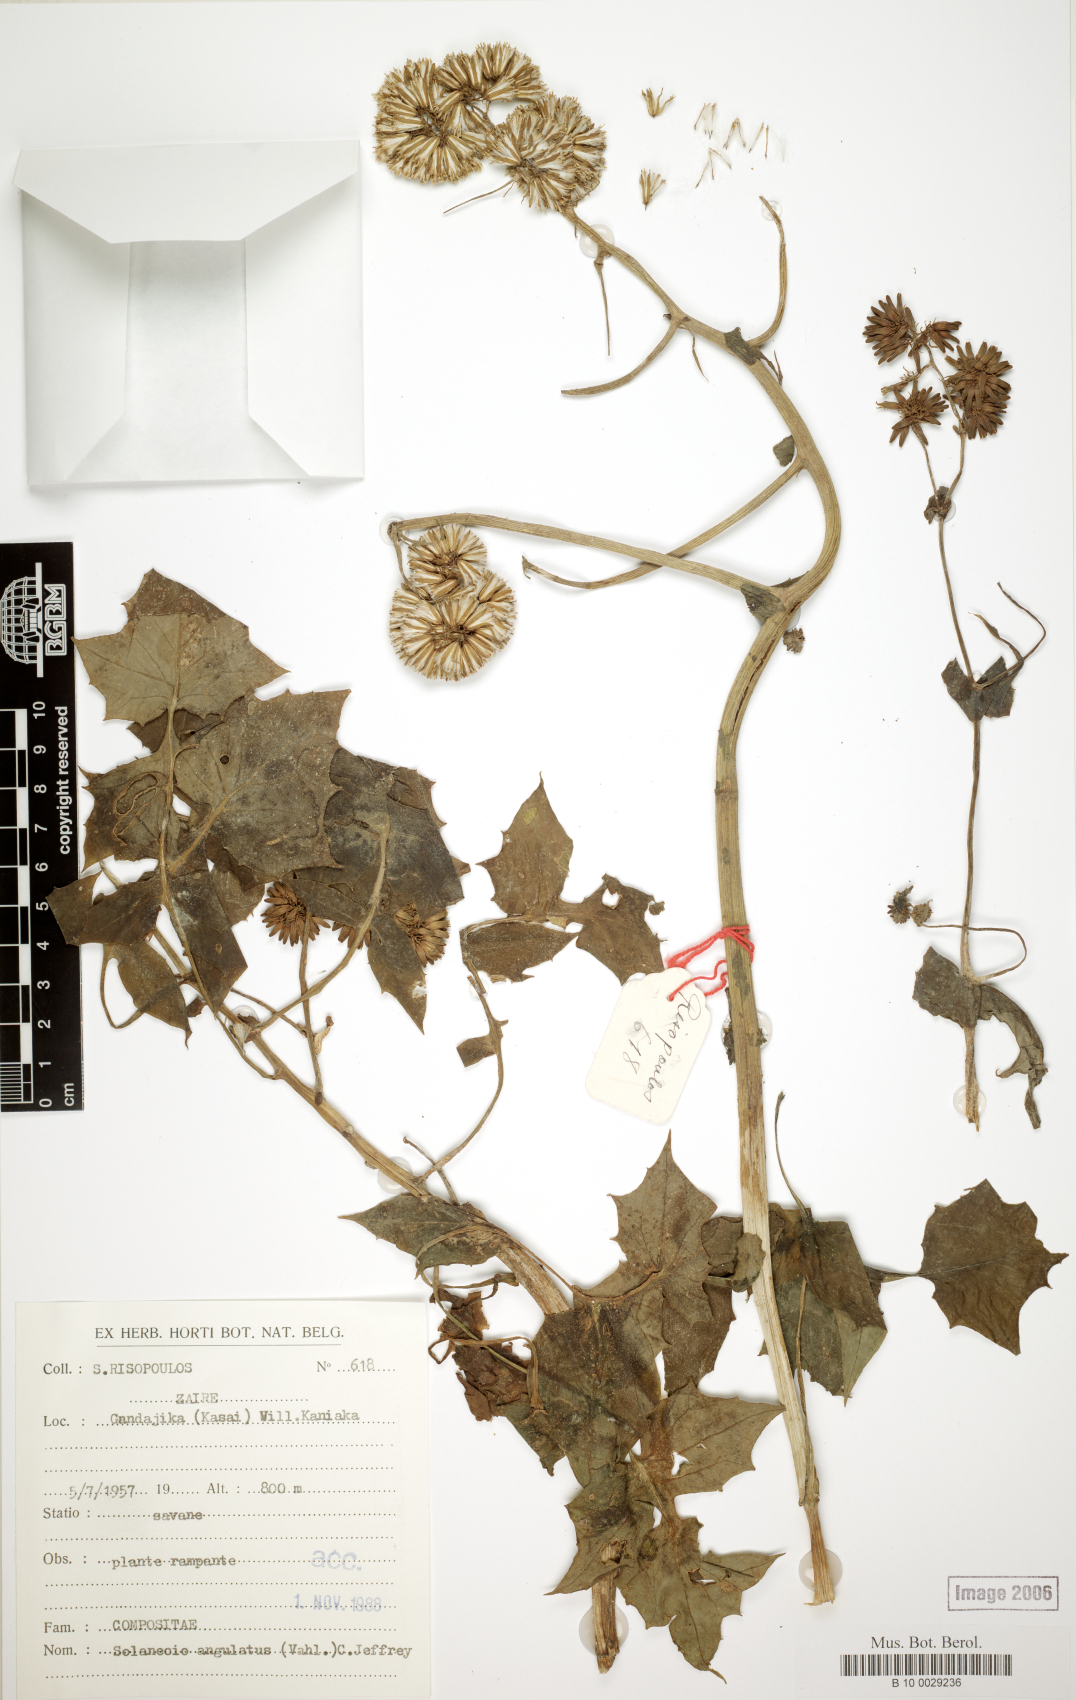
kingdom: Plantae
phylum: Tracheophyta
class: Magnoliopsida
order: Asterales
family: Asteraceae
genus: Solanecio
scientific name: Solanecio angulatus
